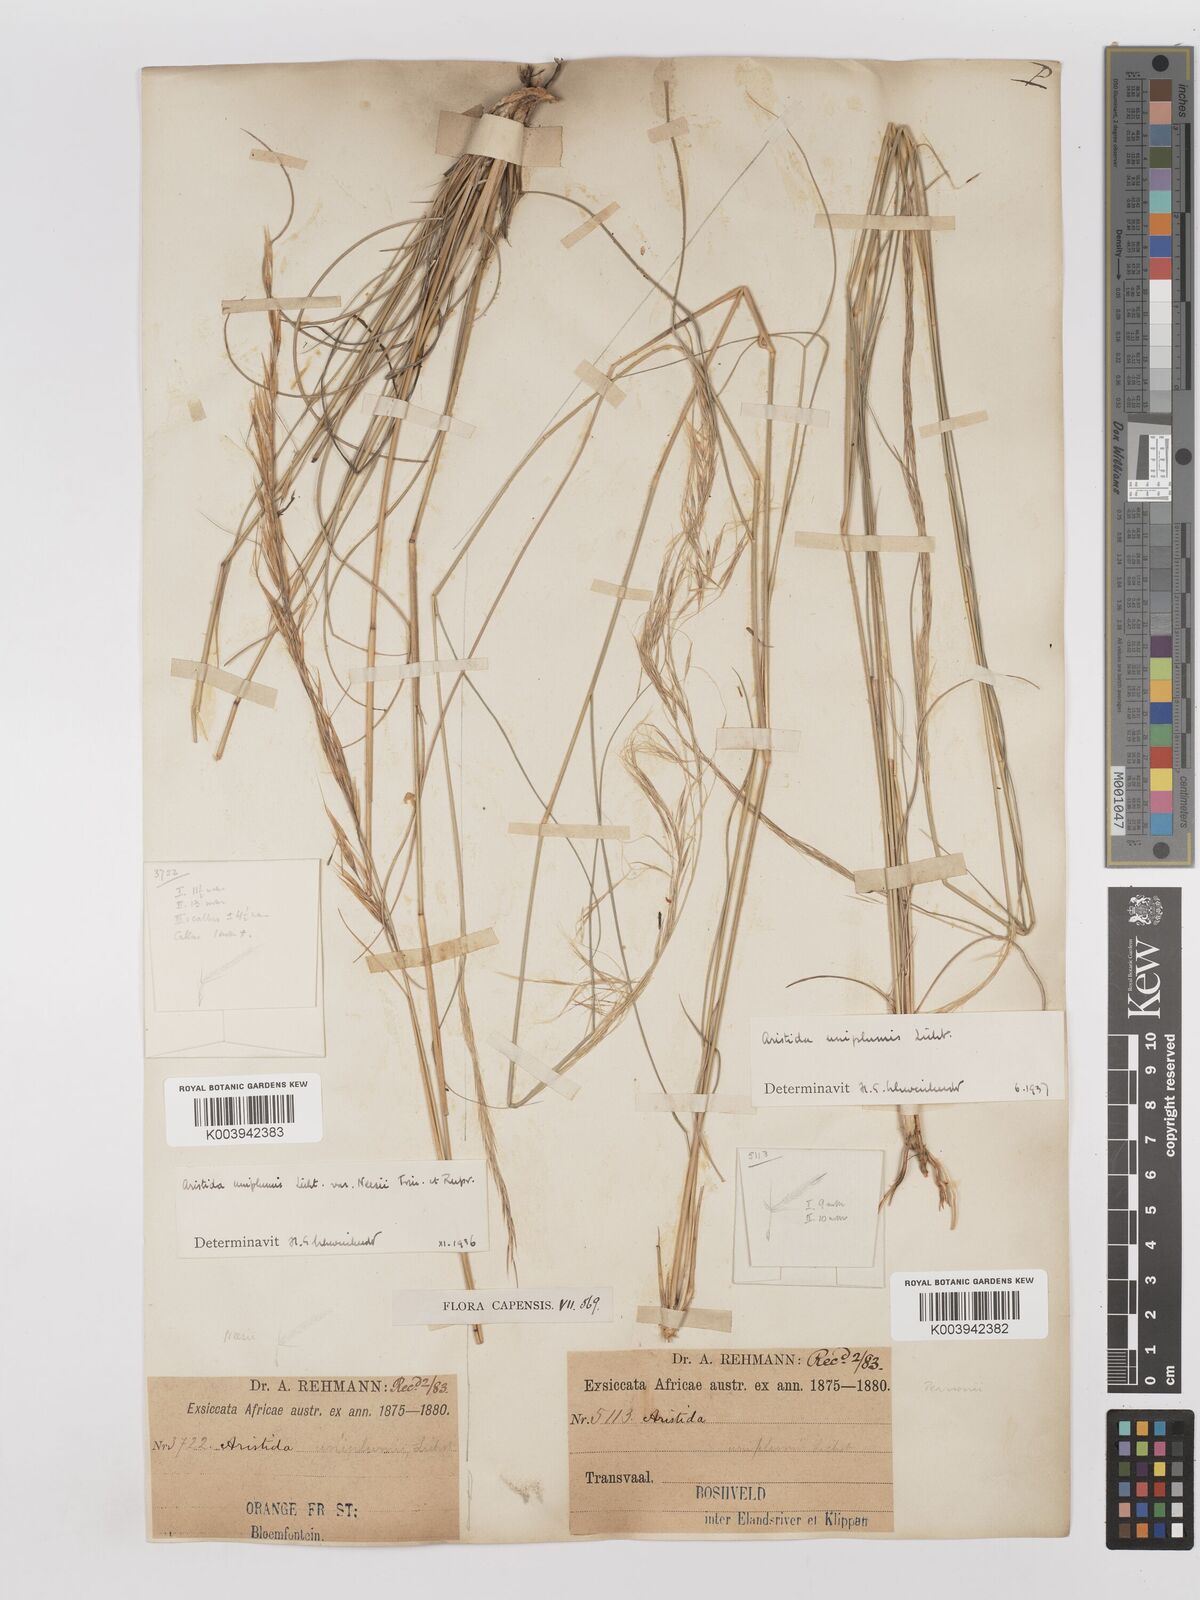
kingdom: Plantae
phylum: Tracheophyta
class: Liliopsida
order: Poales
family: Poaceae
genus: Stipagrostis
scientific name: Stipagrostis uniplumis
